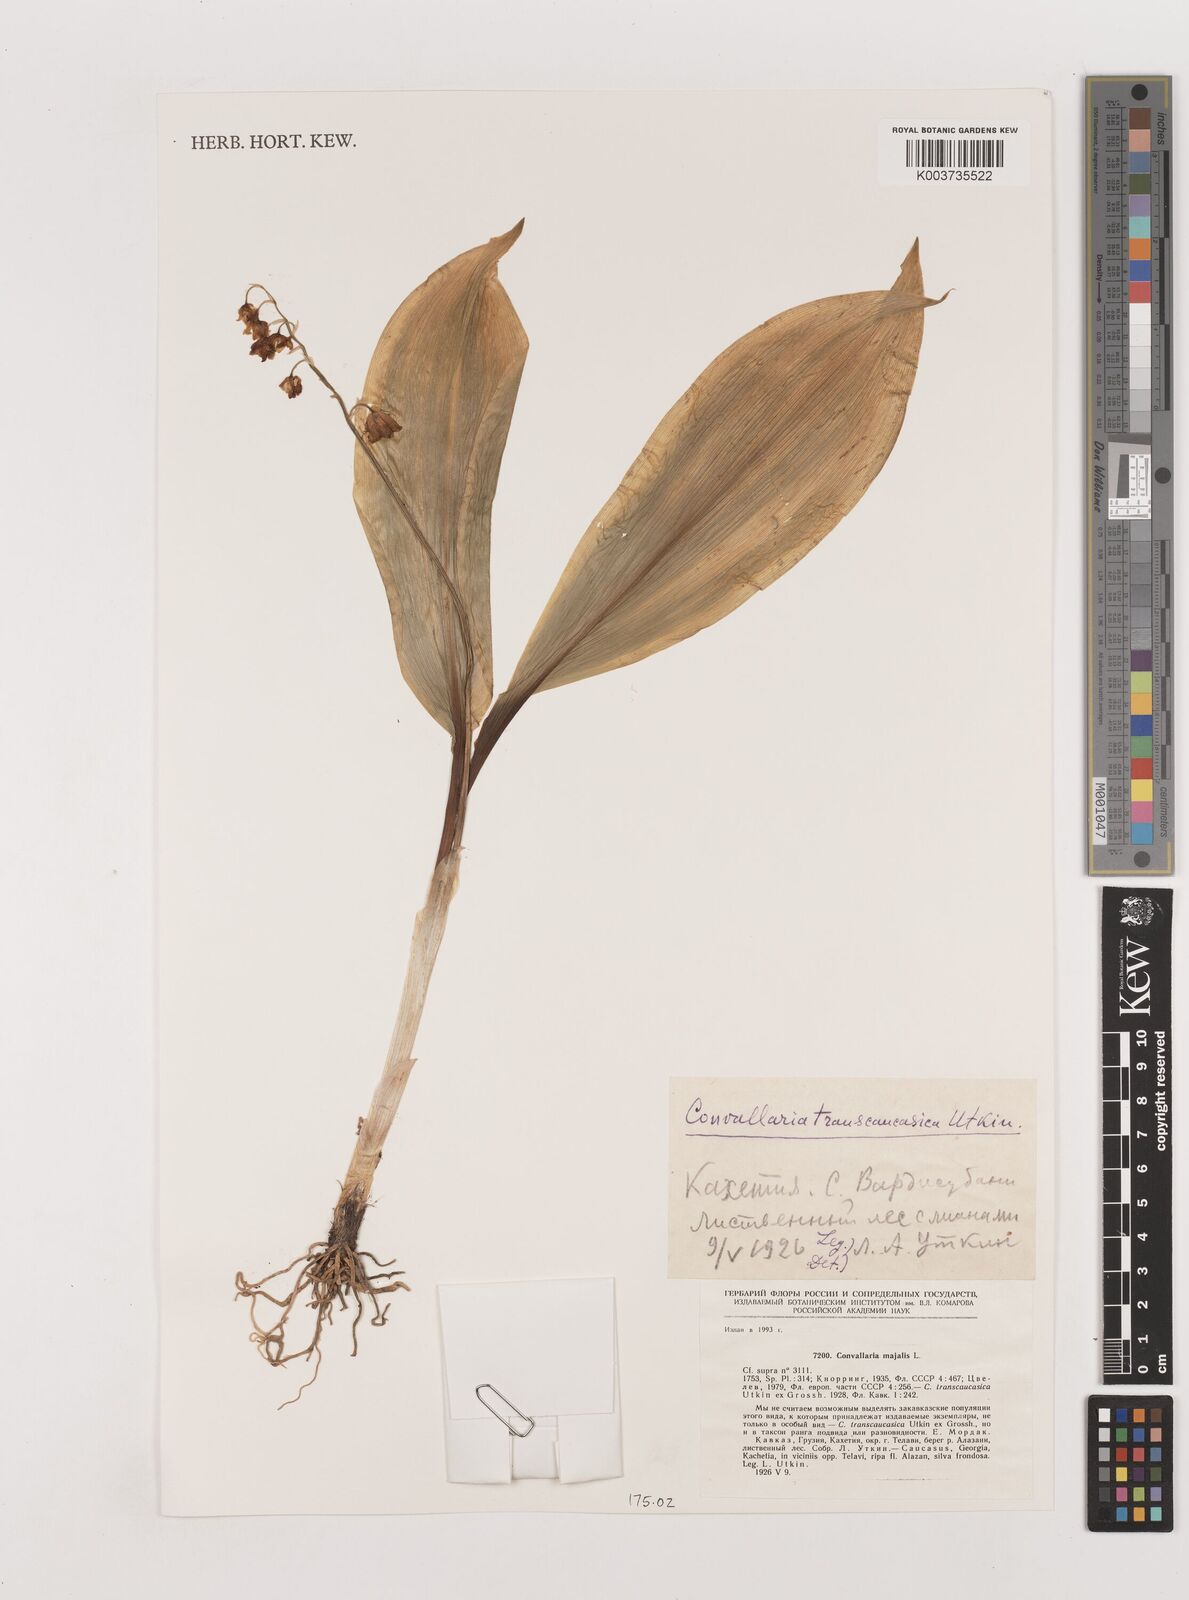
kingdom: Plantae
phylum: Tracheophyta
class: Liliopsida
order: Asparagales
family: Asparagaceae
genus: Convallaria
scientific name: Convallaria majalis
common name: Lily-of-the-valley
